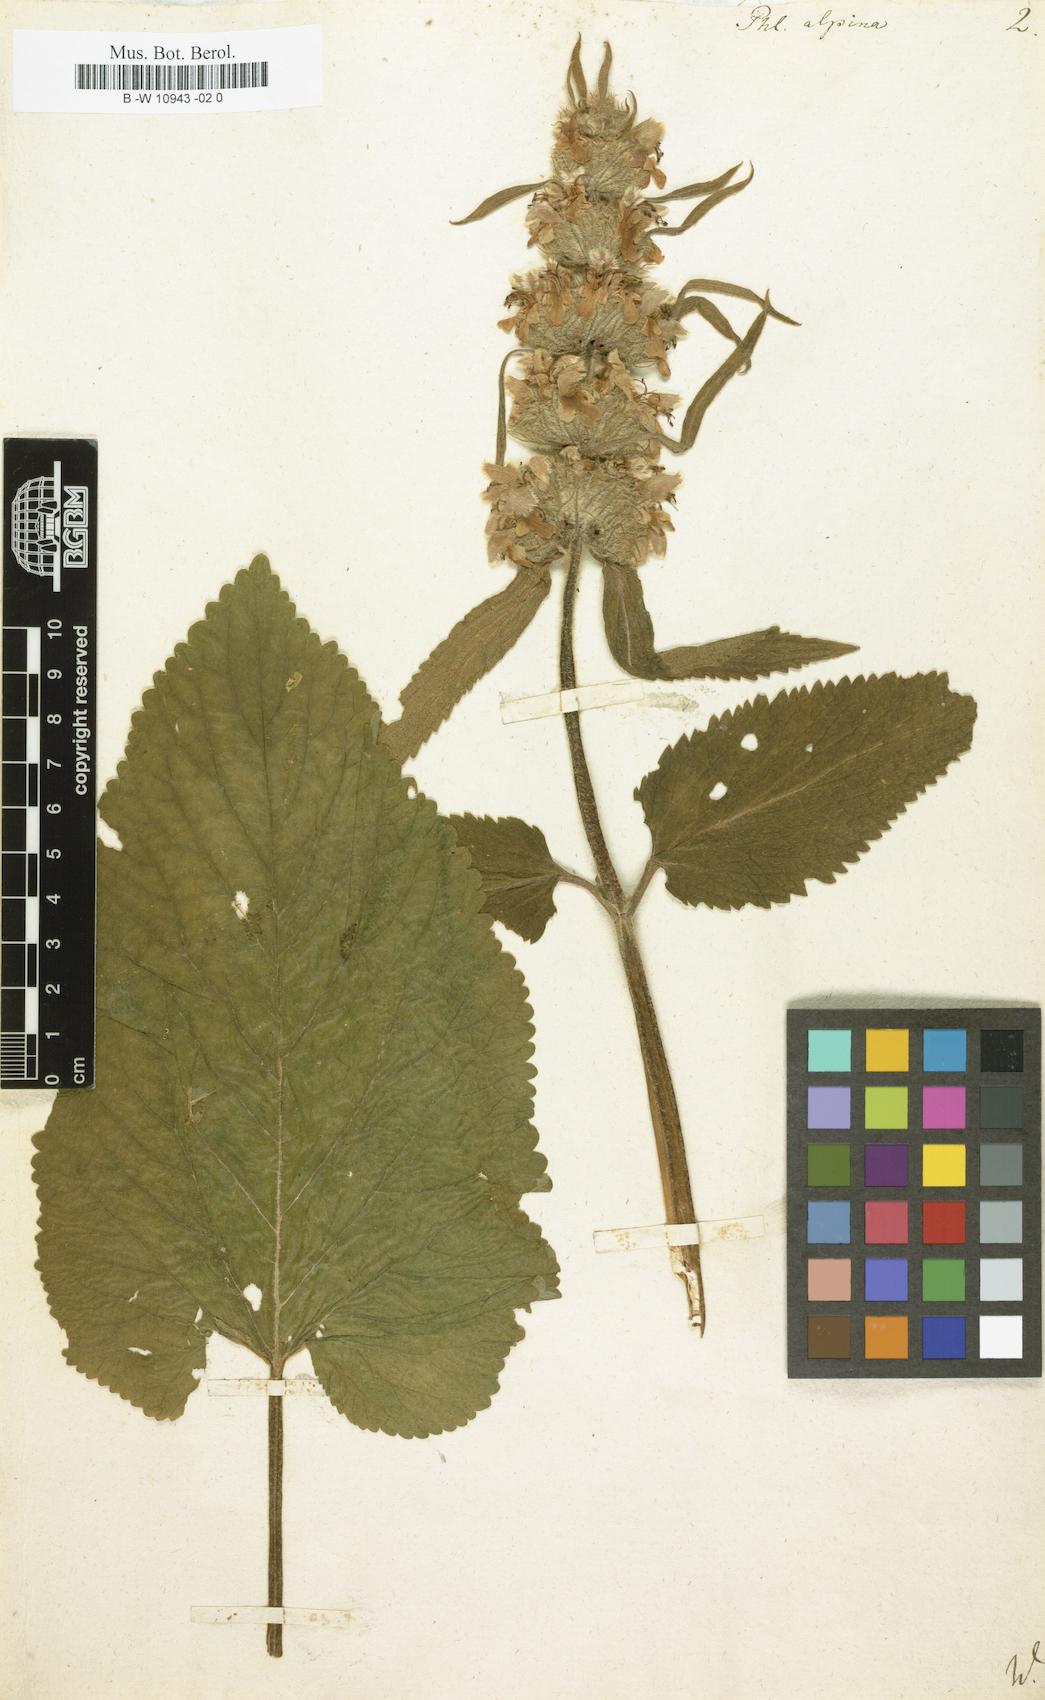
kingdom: Plantae
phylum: Tracheophyta
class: Magnoliopsida
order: Lamiales
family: Lamiaceae
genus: Phlomoides
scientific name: Phlomoides alpina
